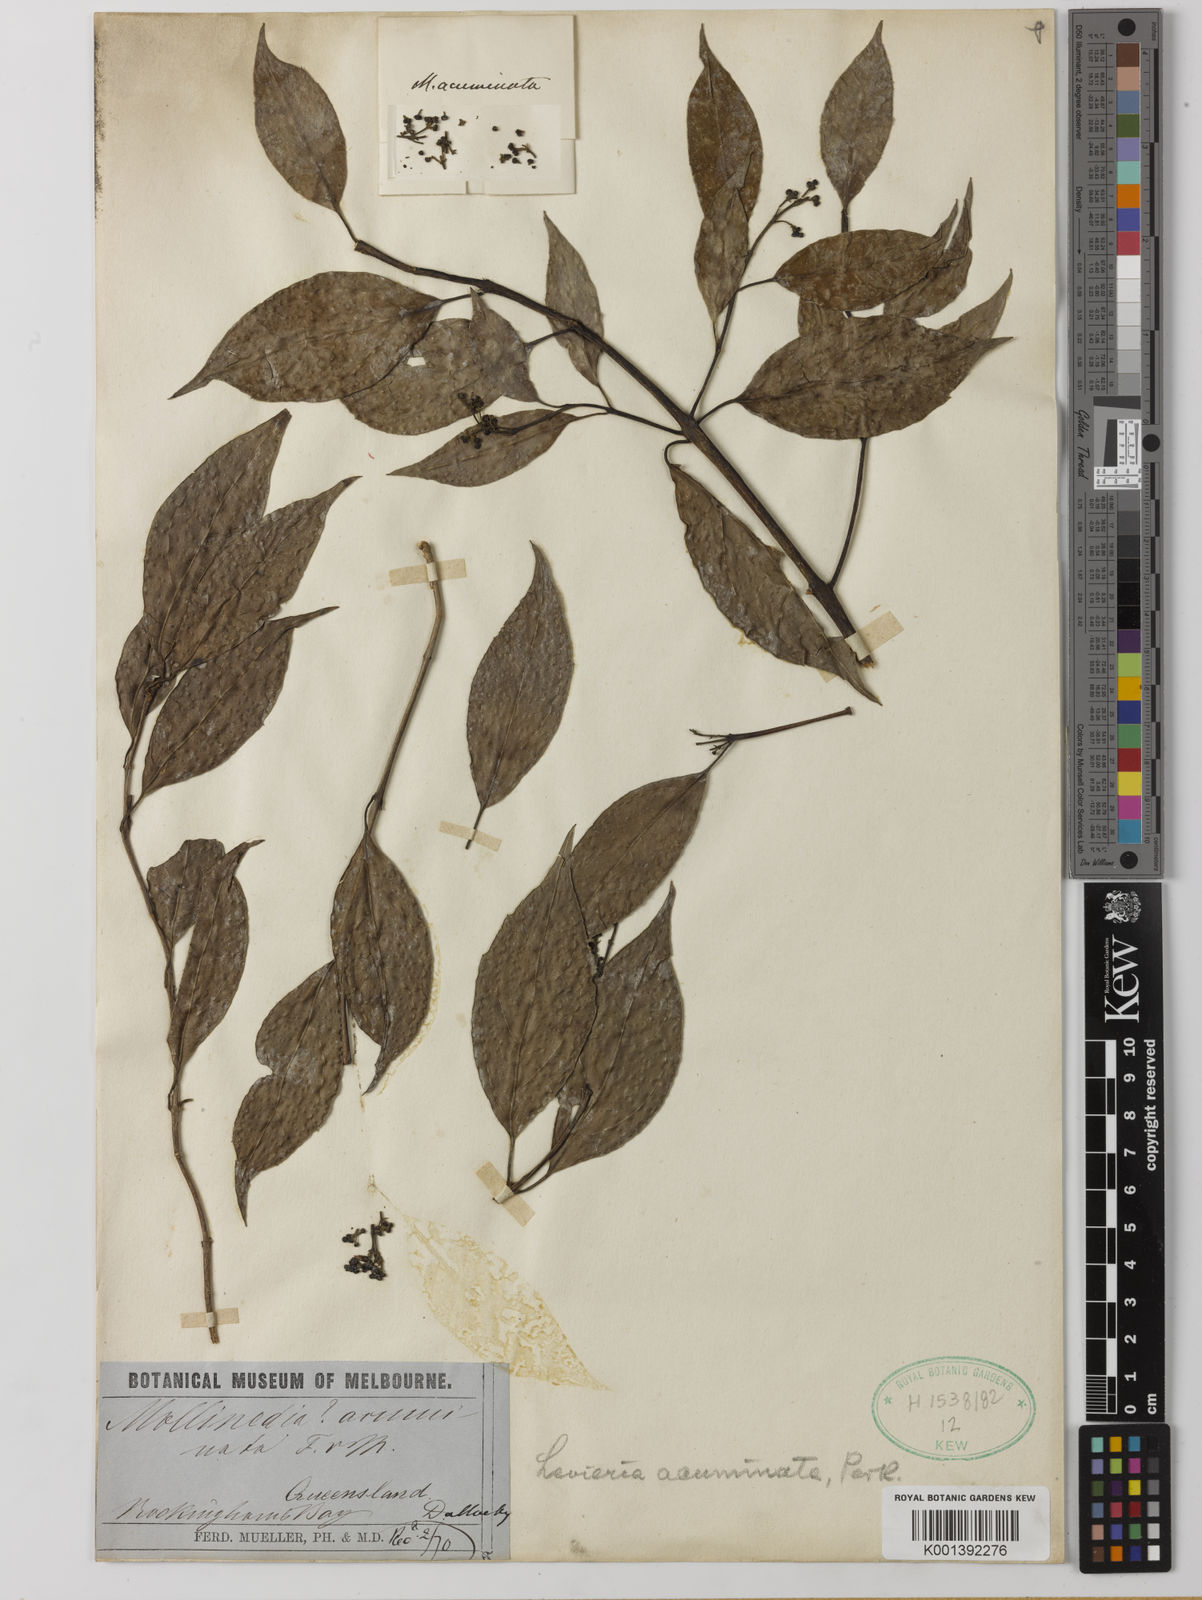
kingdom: Plantae
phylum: Tracheophyta
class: Magnoliopsida
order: Laurales
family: Monimiaceae
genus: Levieria
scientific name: Levieria acuminata
